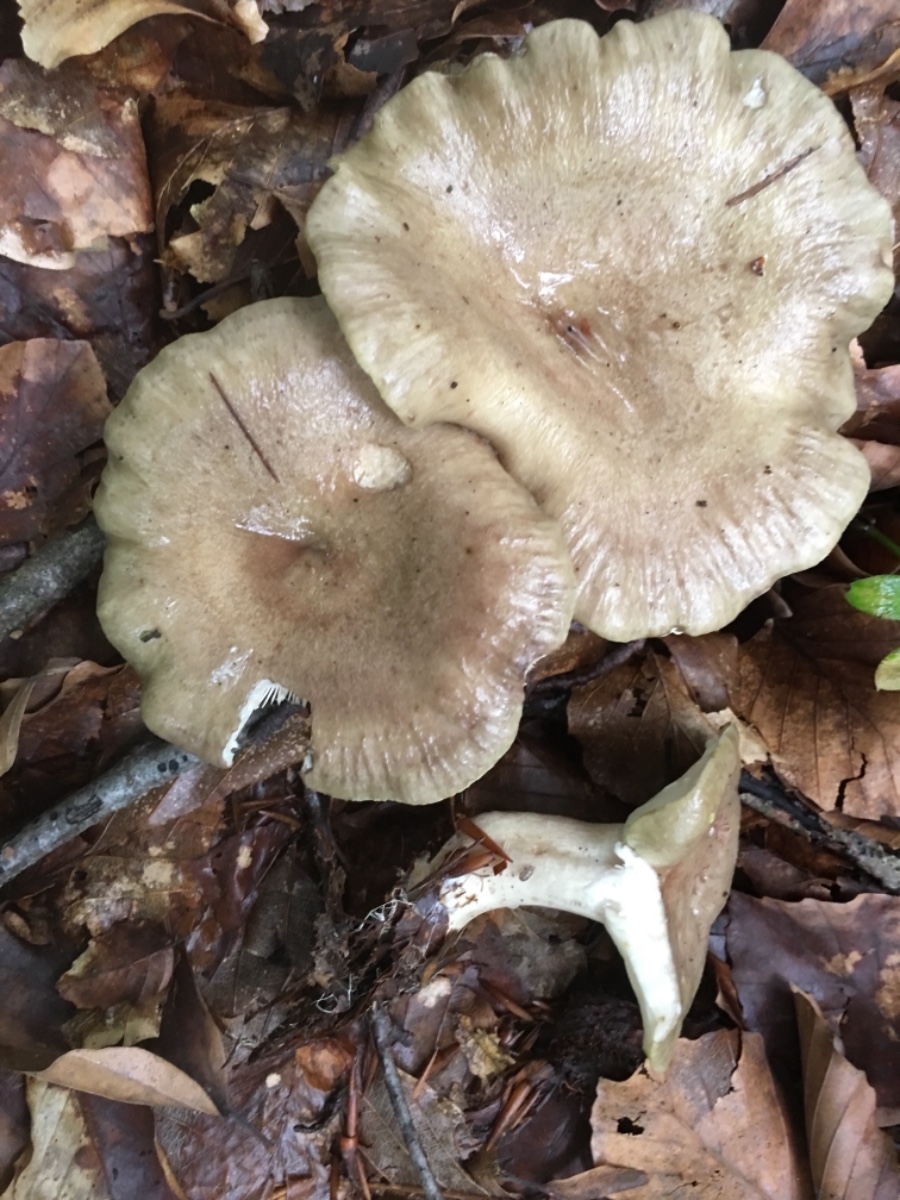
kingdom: Fungi
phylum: Basidiomycota
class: Agaricomycetes
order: Russulales
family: Russulaceae
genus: Lactarius
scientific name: Lactarius blennius
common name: dråbeplettet mælkehat
